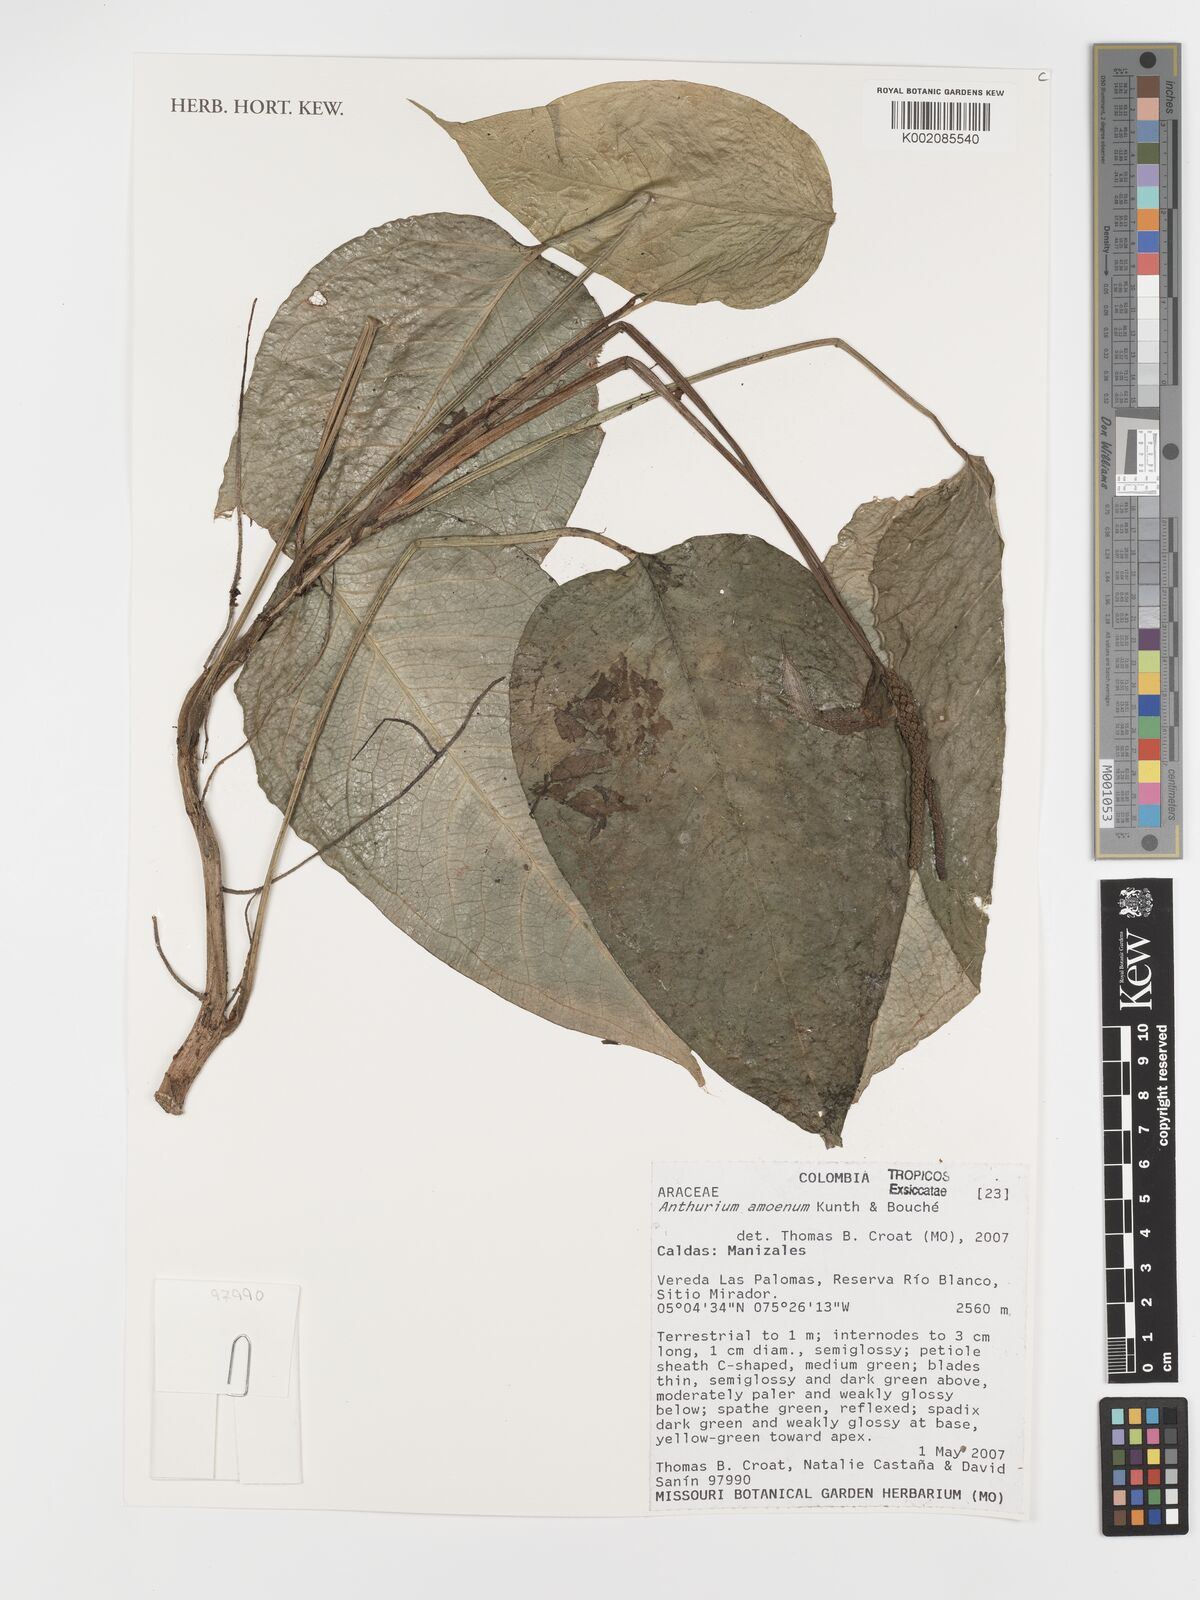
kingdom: Plantae
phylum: Tracheophyta
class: Liliopsida
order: Alismatales
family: Araceae
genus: Anthurium
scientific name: Anthurium amoenum
